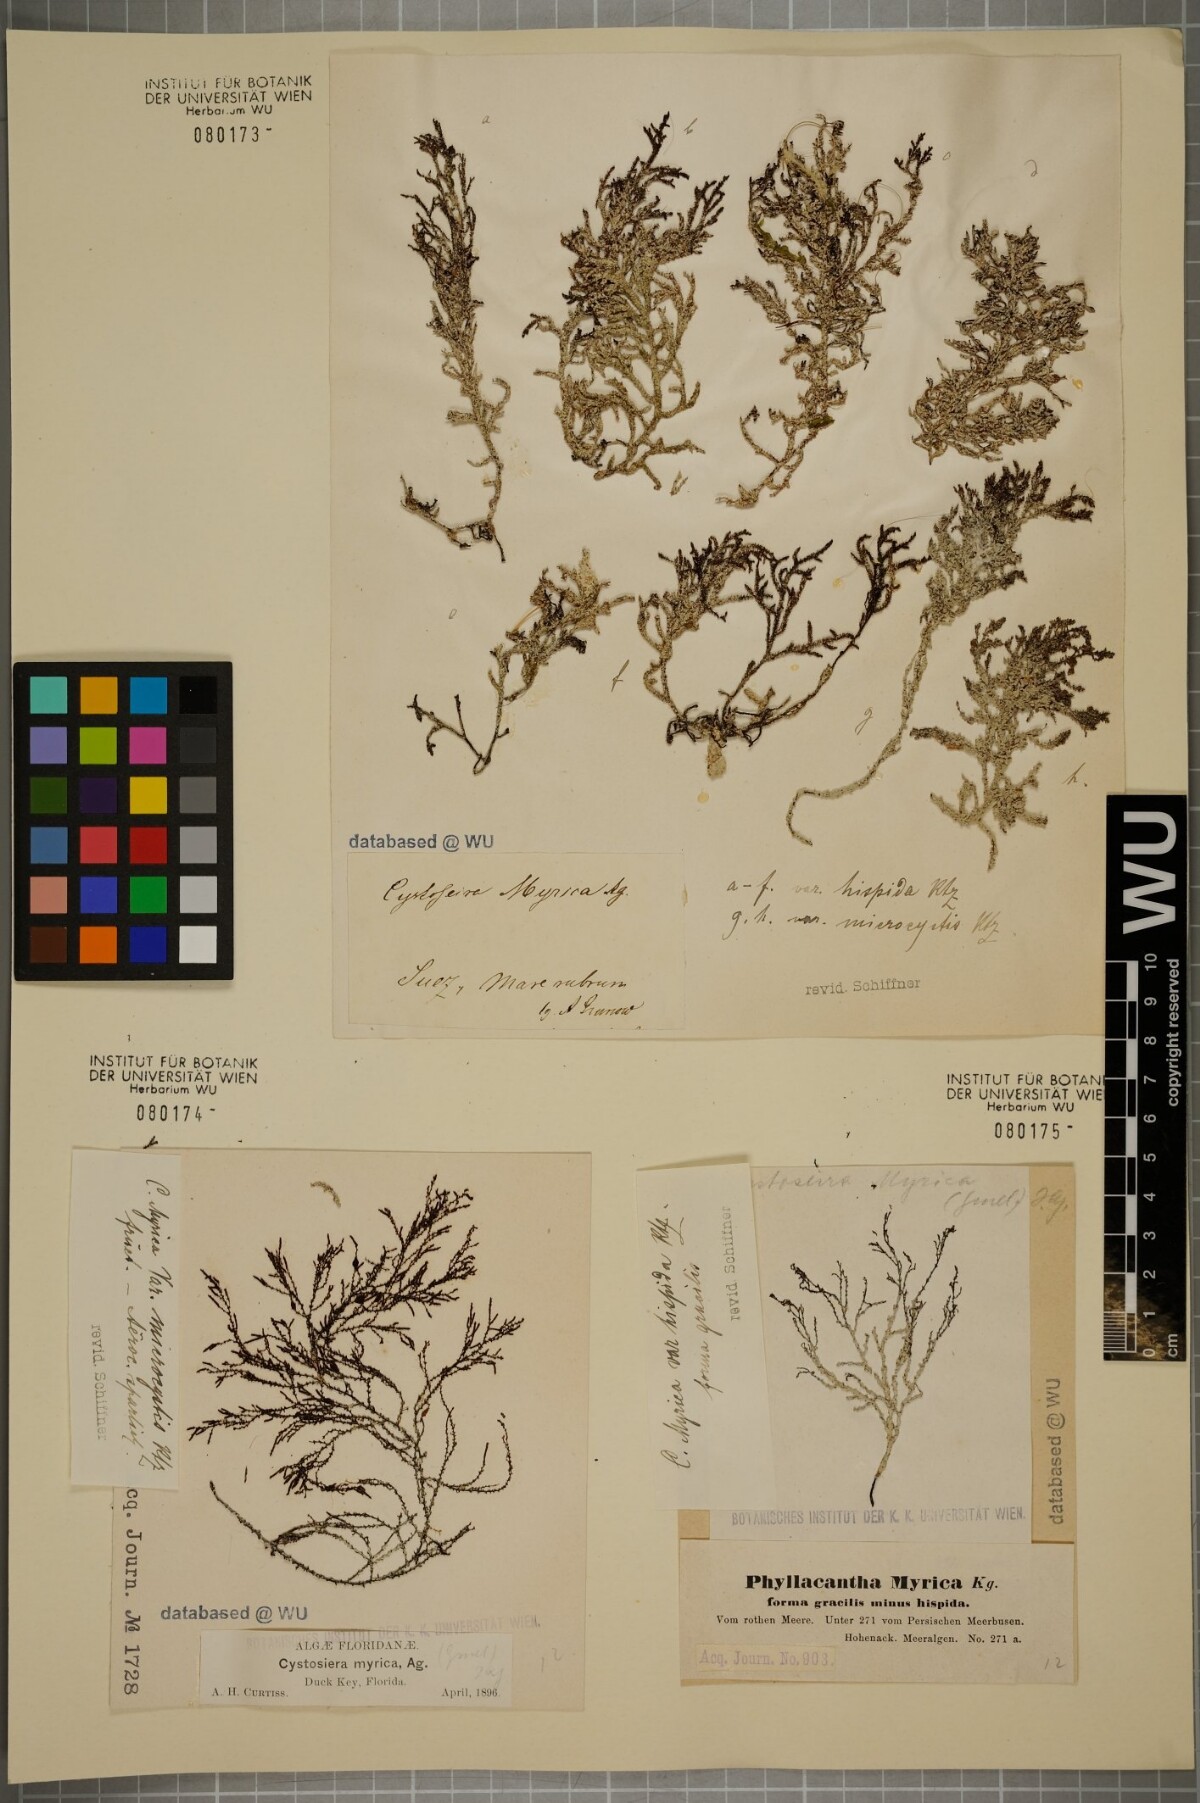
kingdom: Chromista
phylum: Ochrophyta
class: Phaeophyceae
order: Fucales
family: Sargassaceae
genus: Polycladia
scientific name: Polycladia myrica
